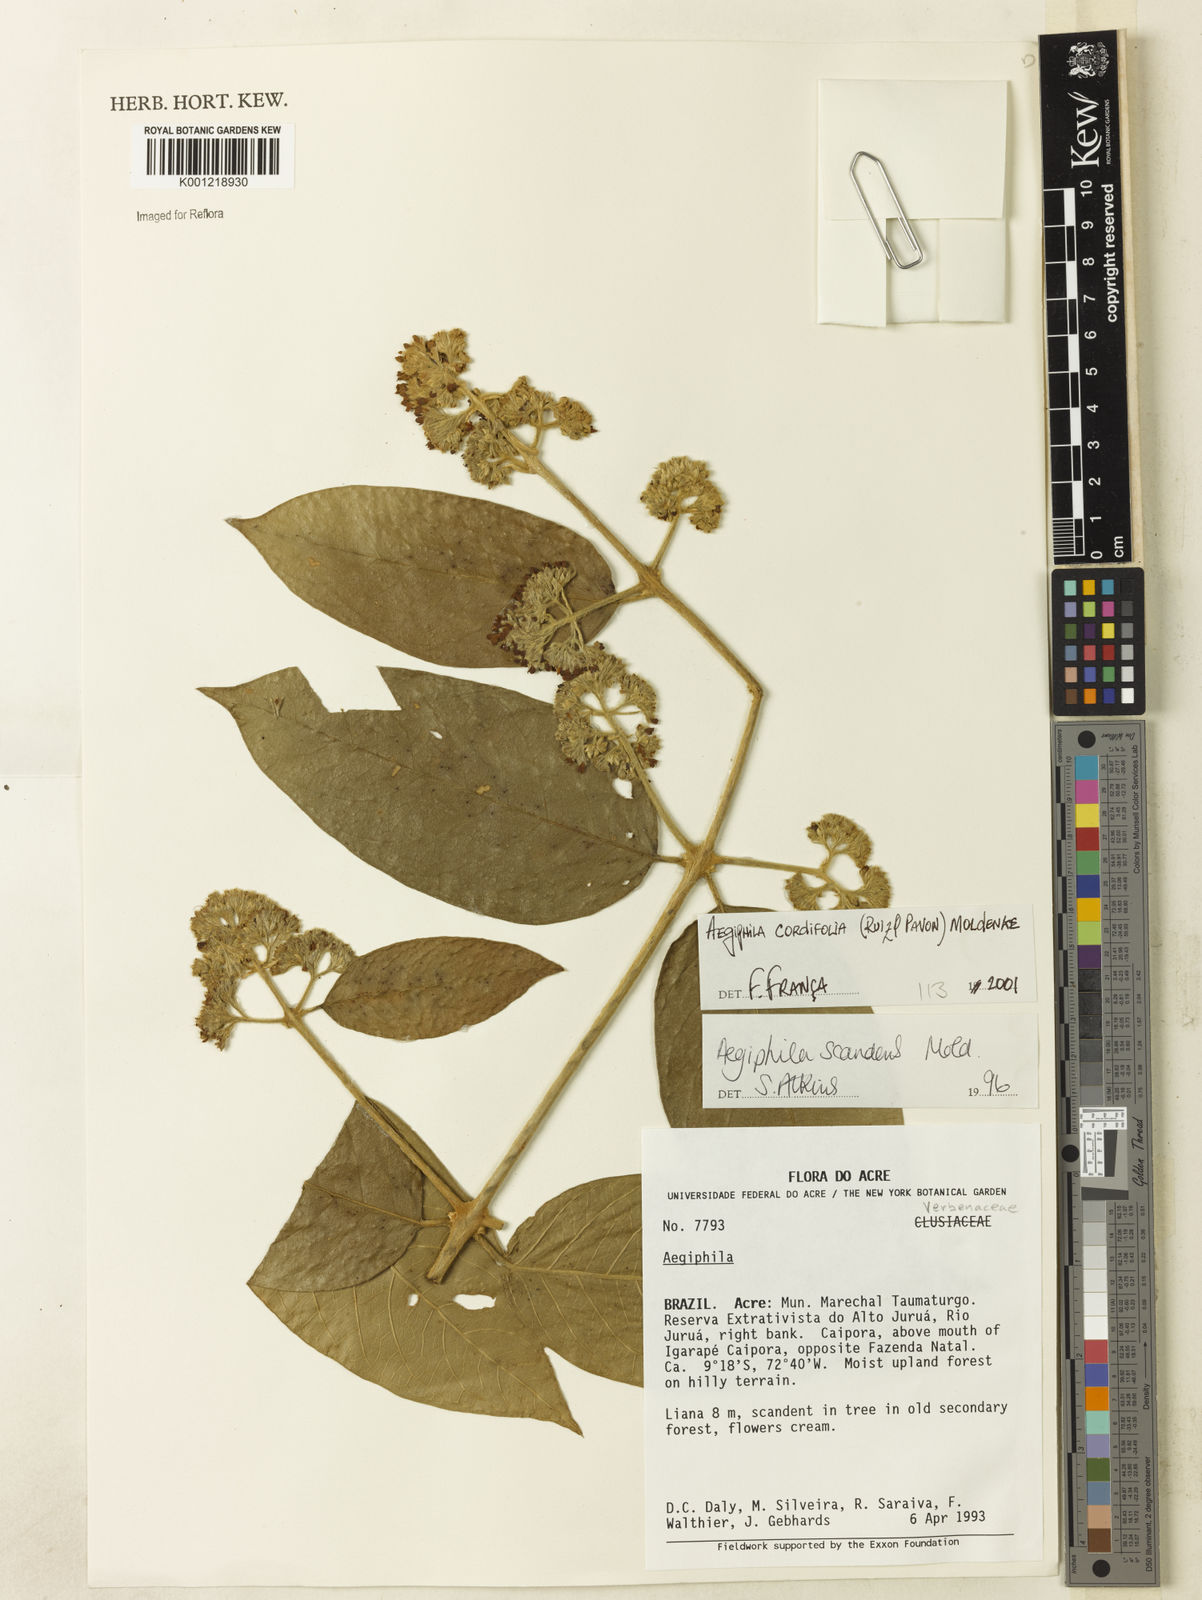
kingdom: Plantae
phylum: Tracheophyta
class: Magnoliopsida
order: Lamiales
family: Lamiaceae
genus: Aegiphila
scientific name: Aegiphila cordifolia
